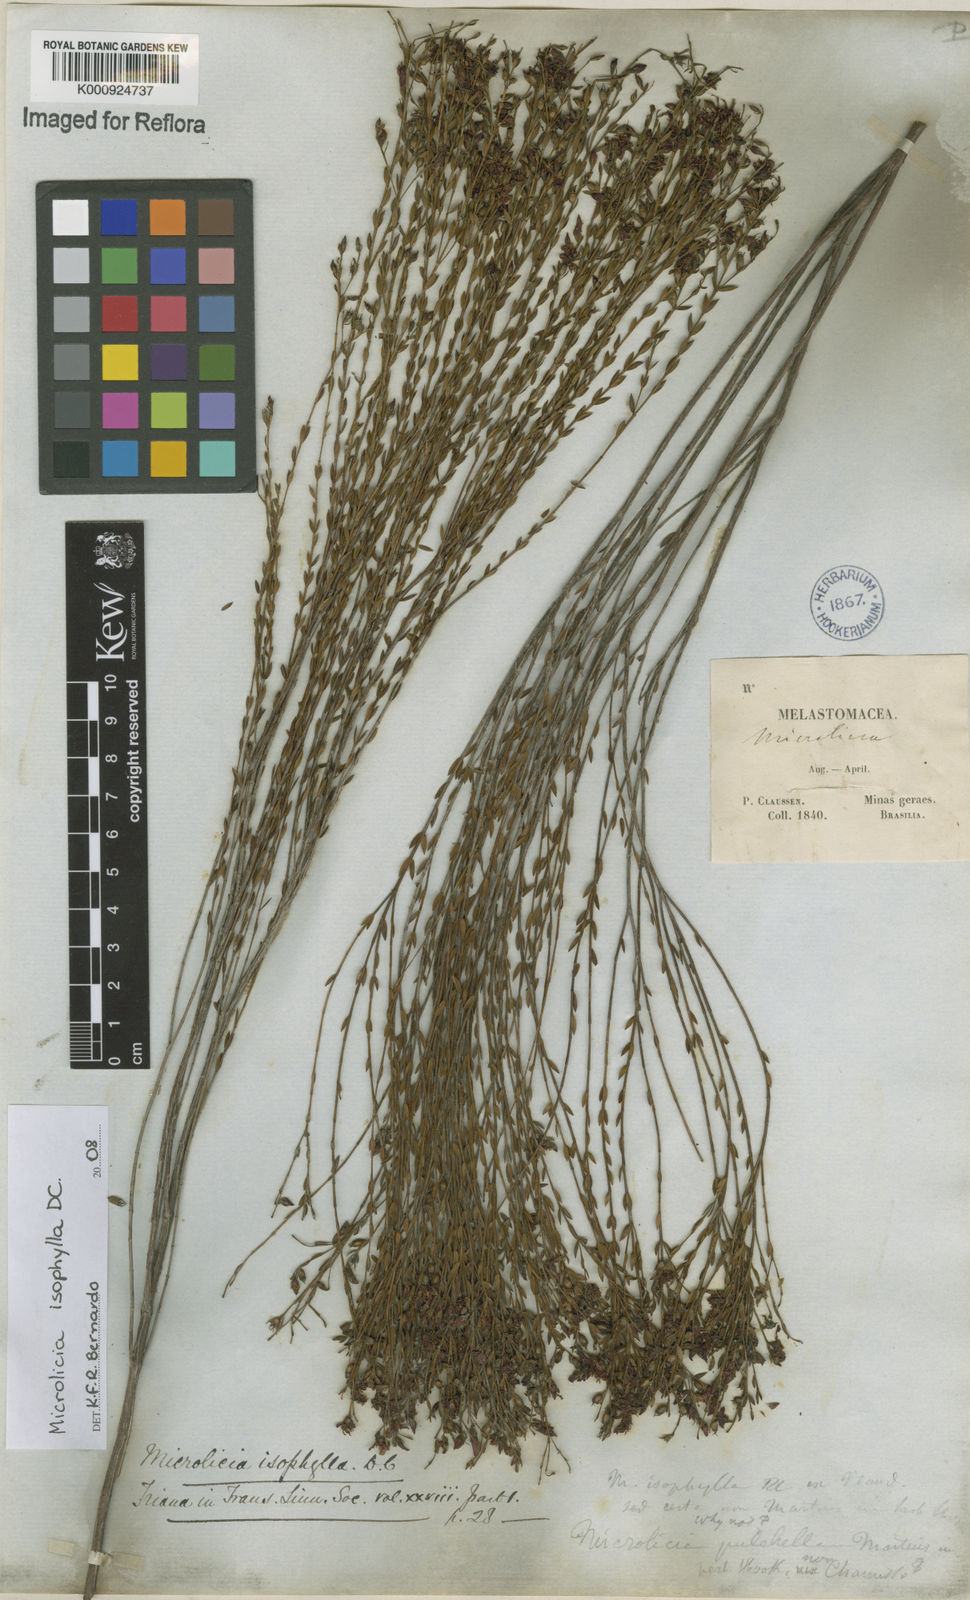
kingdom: Plantae
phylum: Tracheophyta
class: Magnoliopsida
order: Myrtales
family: Melastomataceae
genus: Microlicia
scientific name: Microlicia isophylla
